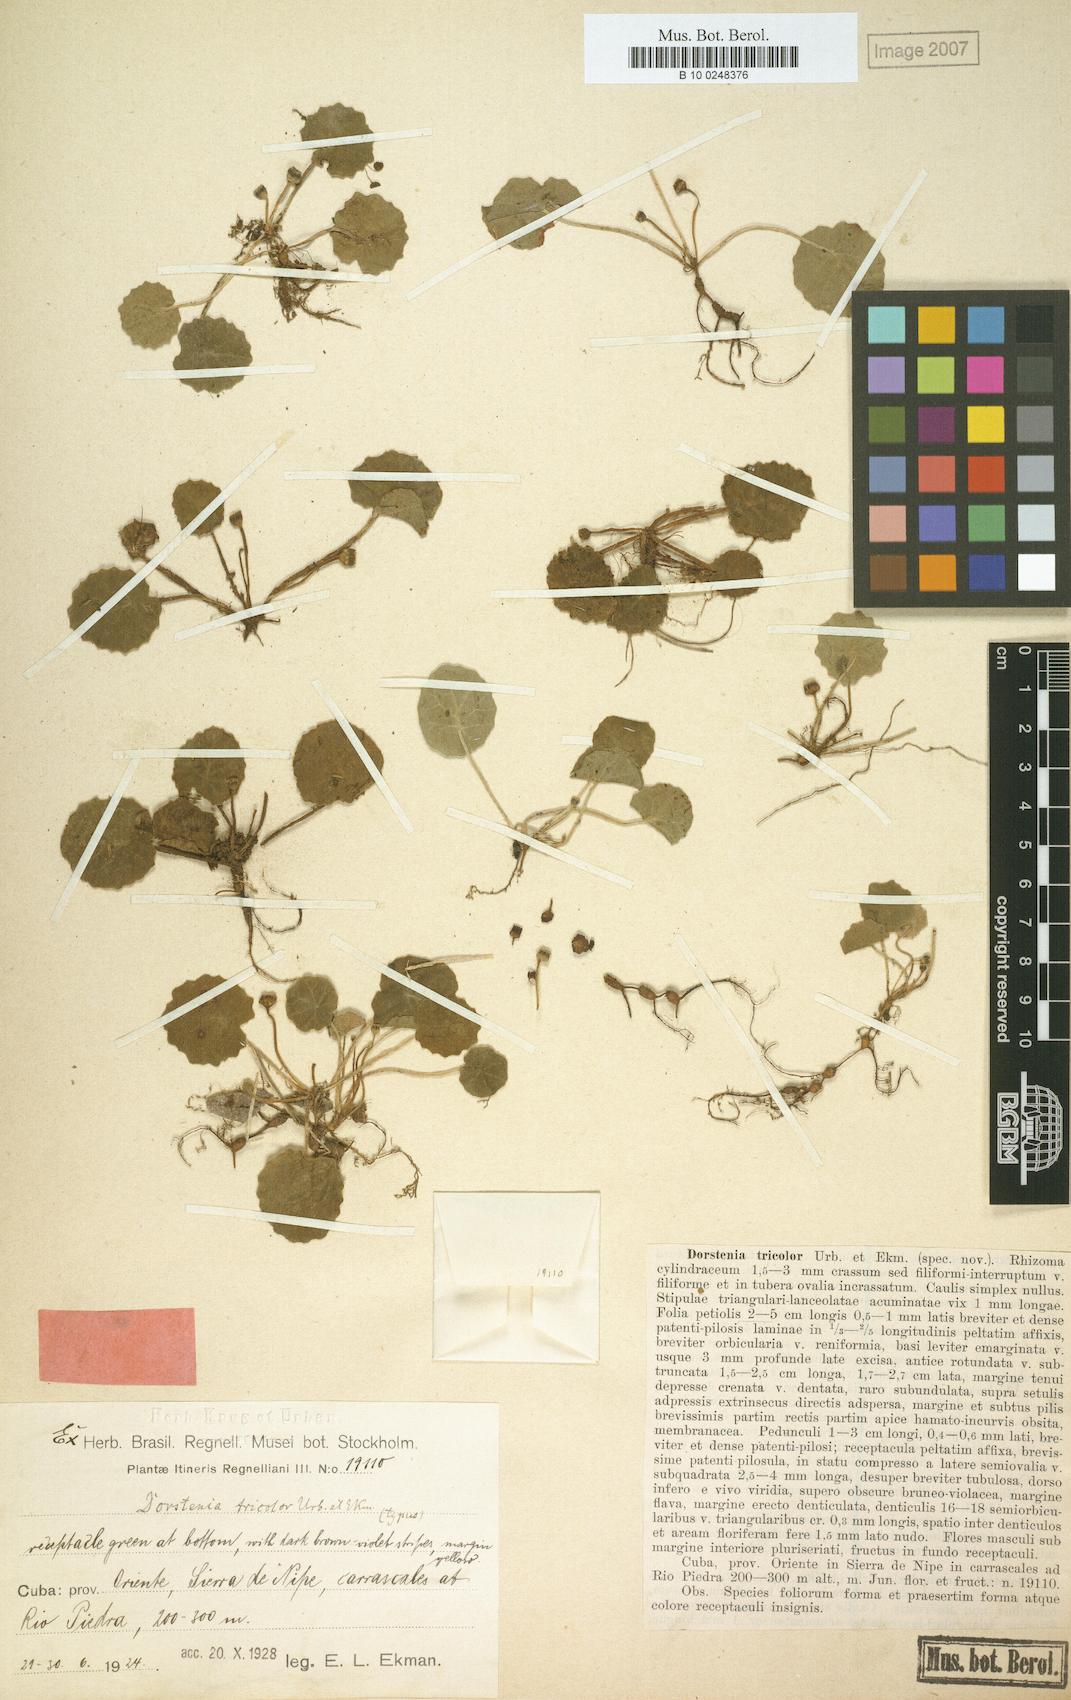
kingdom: Plantae
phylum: Tracheophyta
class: Magnoliopsida
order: Rosales
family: Moraceae
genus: Dorstenia
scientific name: Dorstenia rocana
